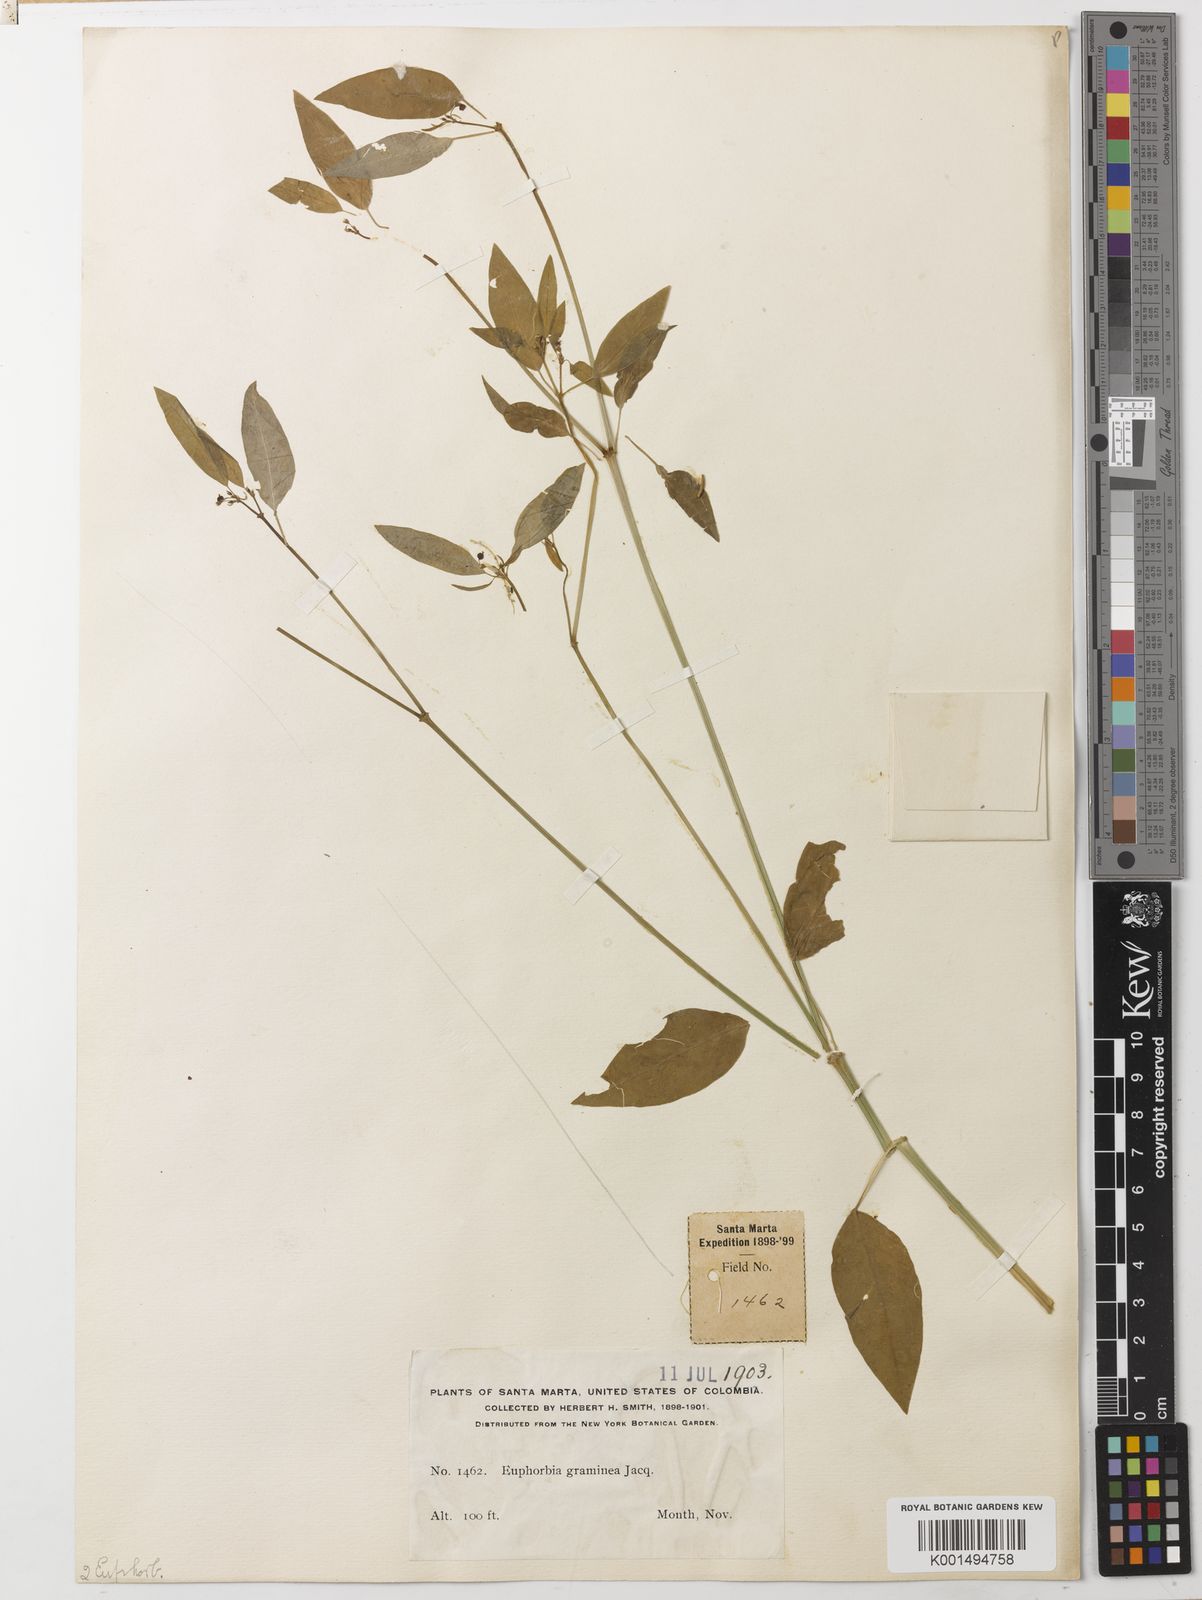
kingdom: Plantae
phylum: Tracheophyta
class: Magnoliopsida
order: Malpighiales
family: Euphorbiaceae
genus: Euphorbia
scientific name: Euphorbia graminea
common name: Grassleaf spurge
